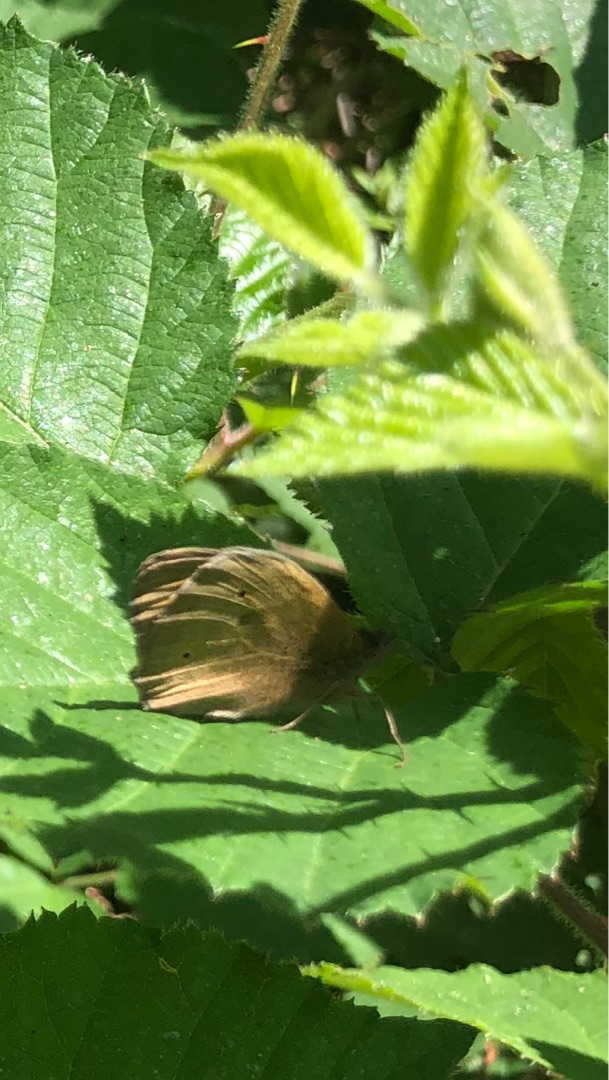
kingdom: Animalia
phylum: Arthropoda
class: Insecta
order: Lepidoptera
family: Nymphalidae
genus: Maniola
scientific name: Maniola jurtina
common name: Græsrandøje
